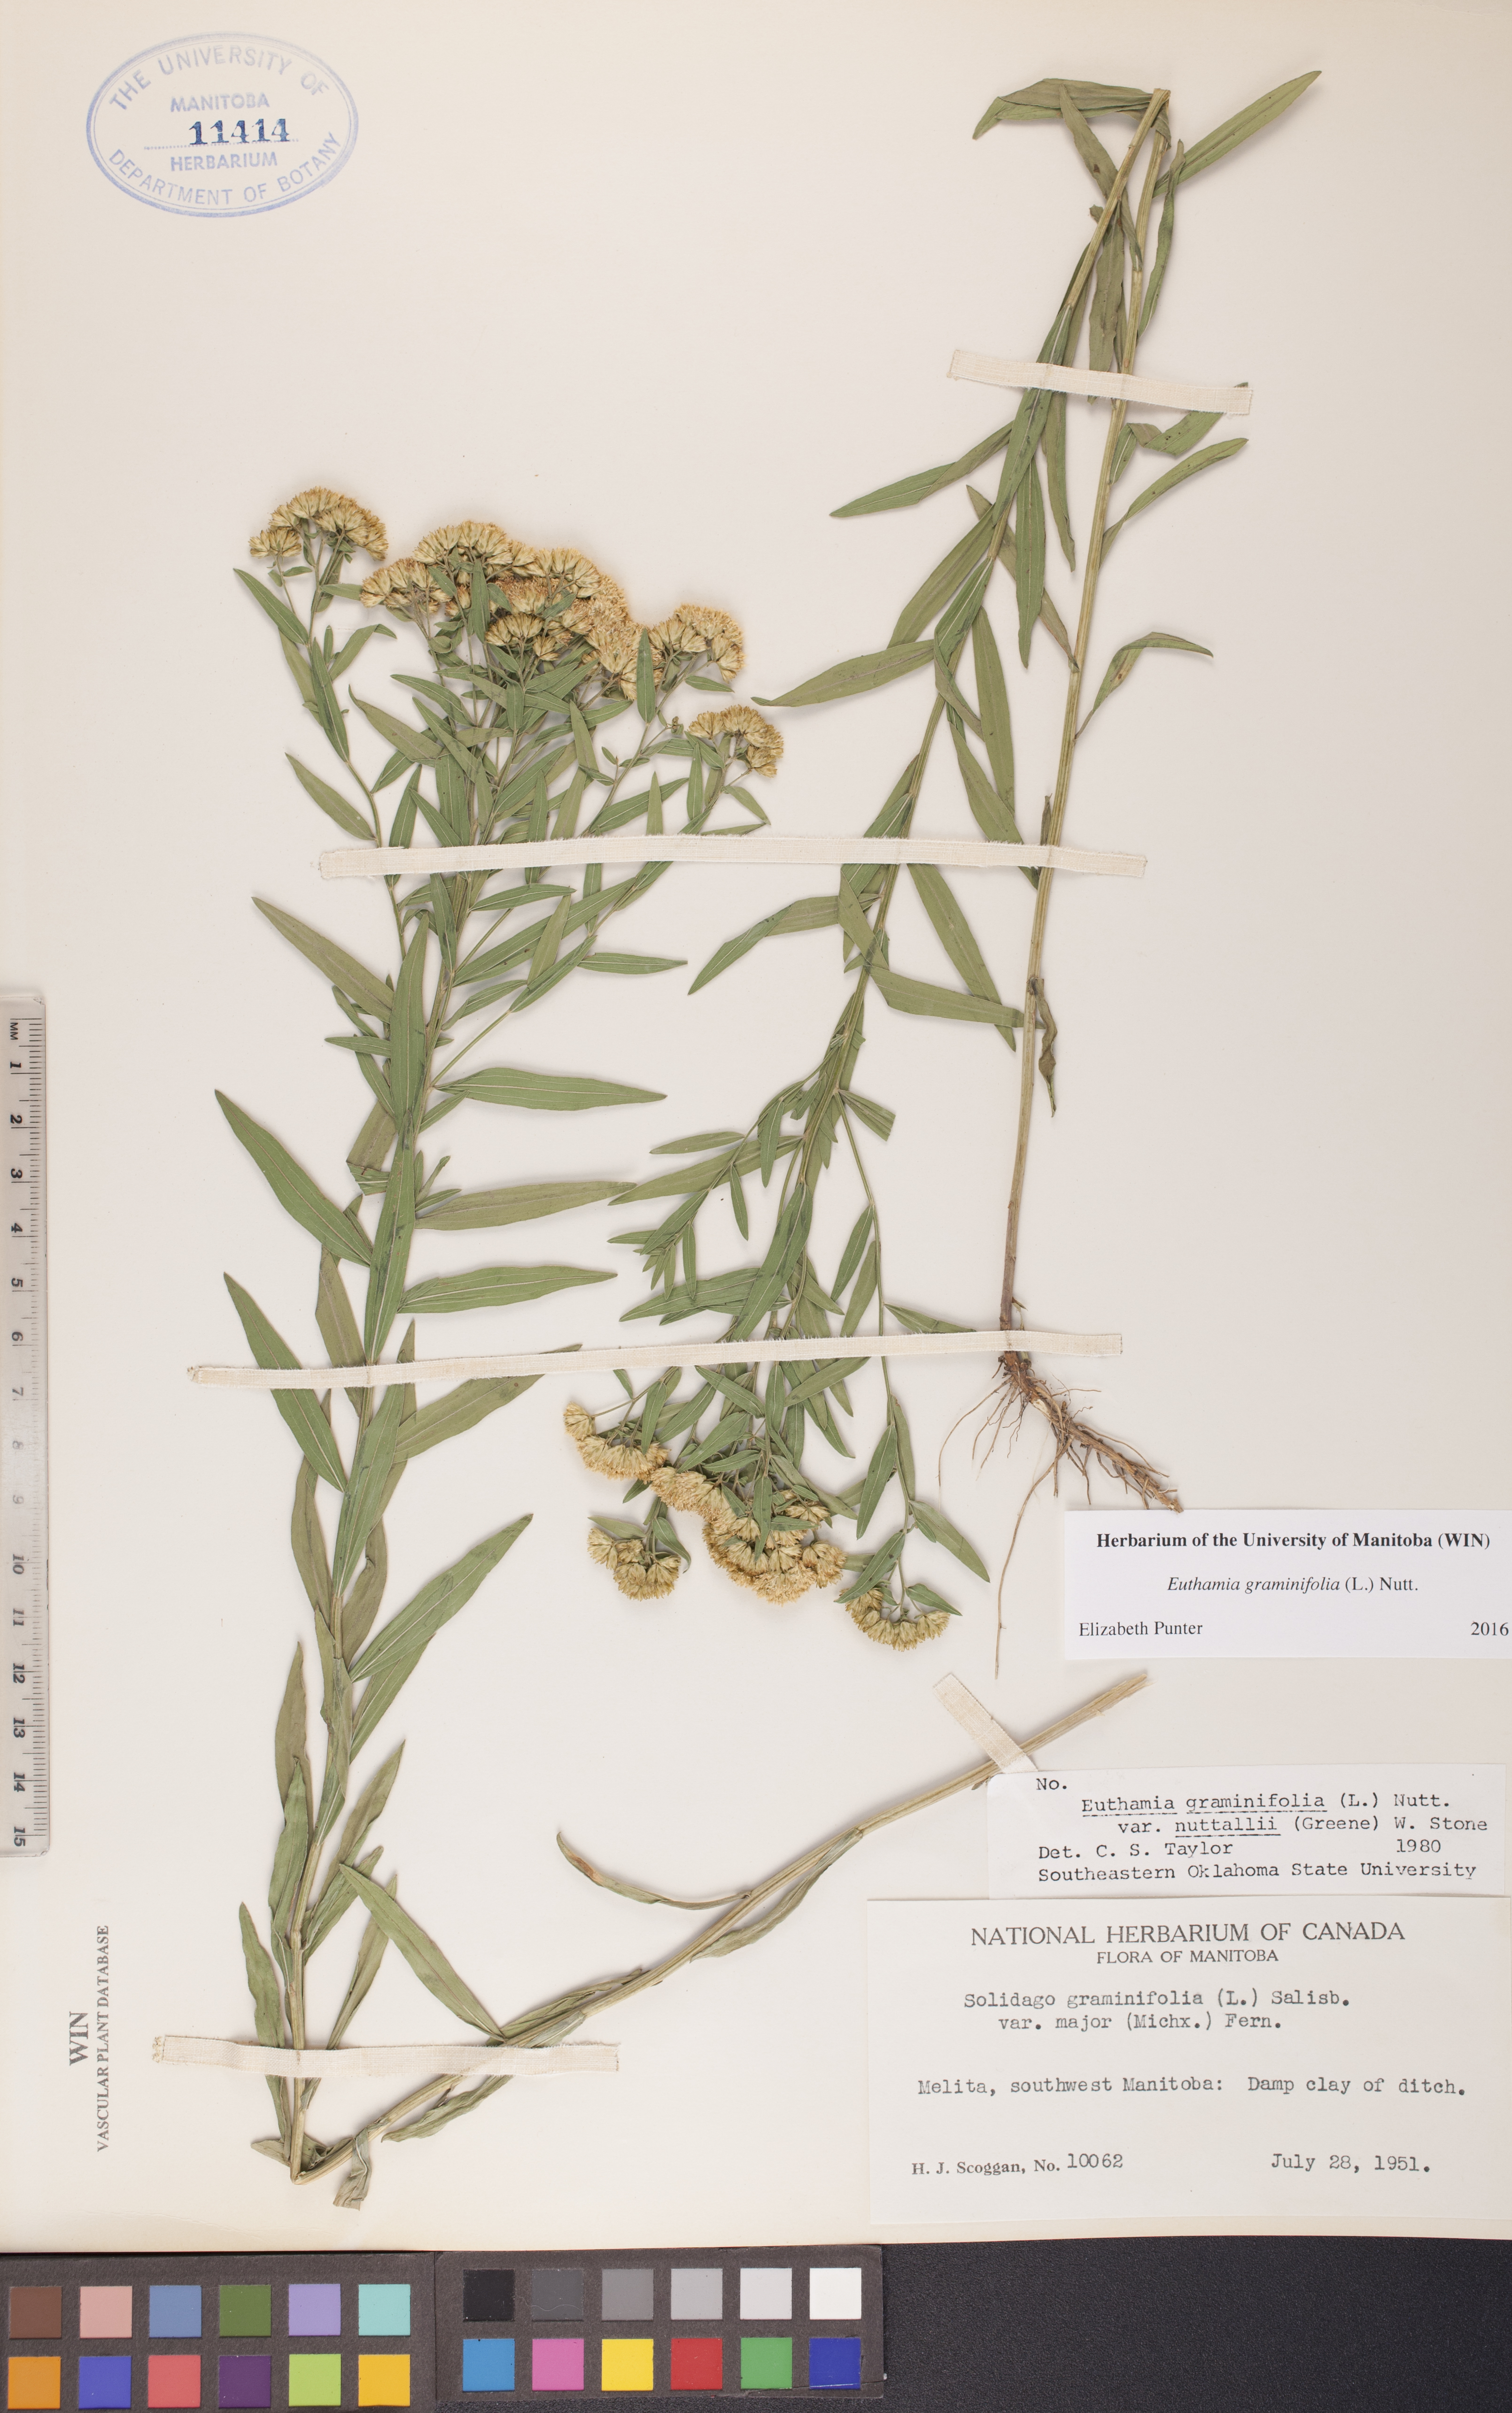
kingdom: Plantae
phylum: Tracheophyta
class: Magnoliopsida
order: Asterales
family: Asteraceae
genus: Euthamia
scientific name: Euthamia graminifolia
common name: Common goldentop
